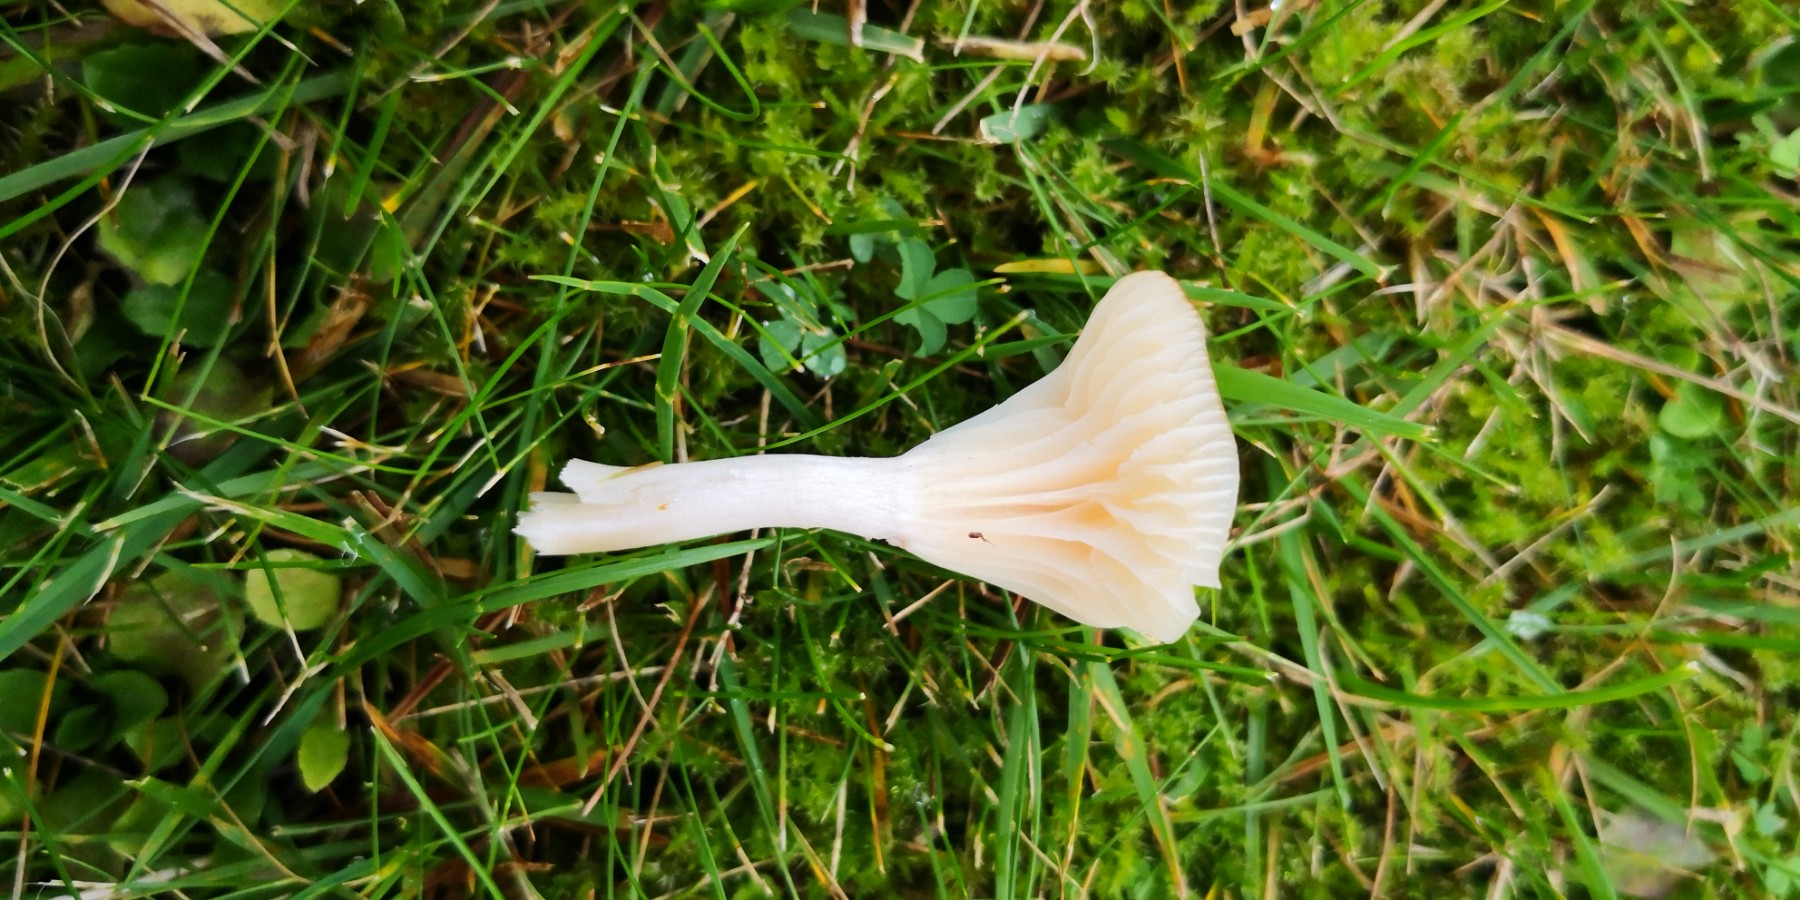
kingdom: Fungi
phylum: Basidiomycota
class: Agaricomycetes
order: Agaricales
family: Hygrophoraceae
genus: Cuphophyllus
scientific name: Cuphophyllus
